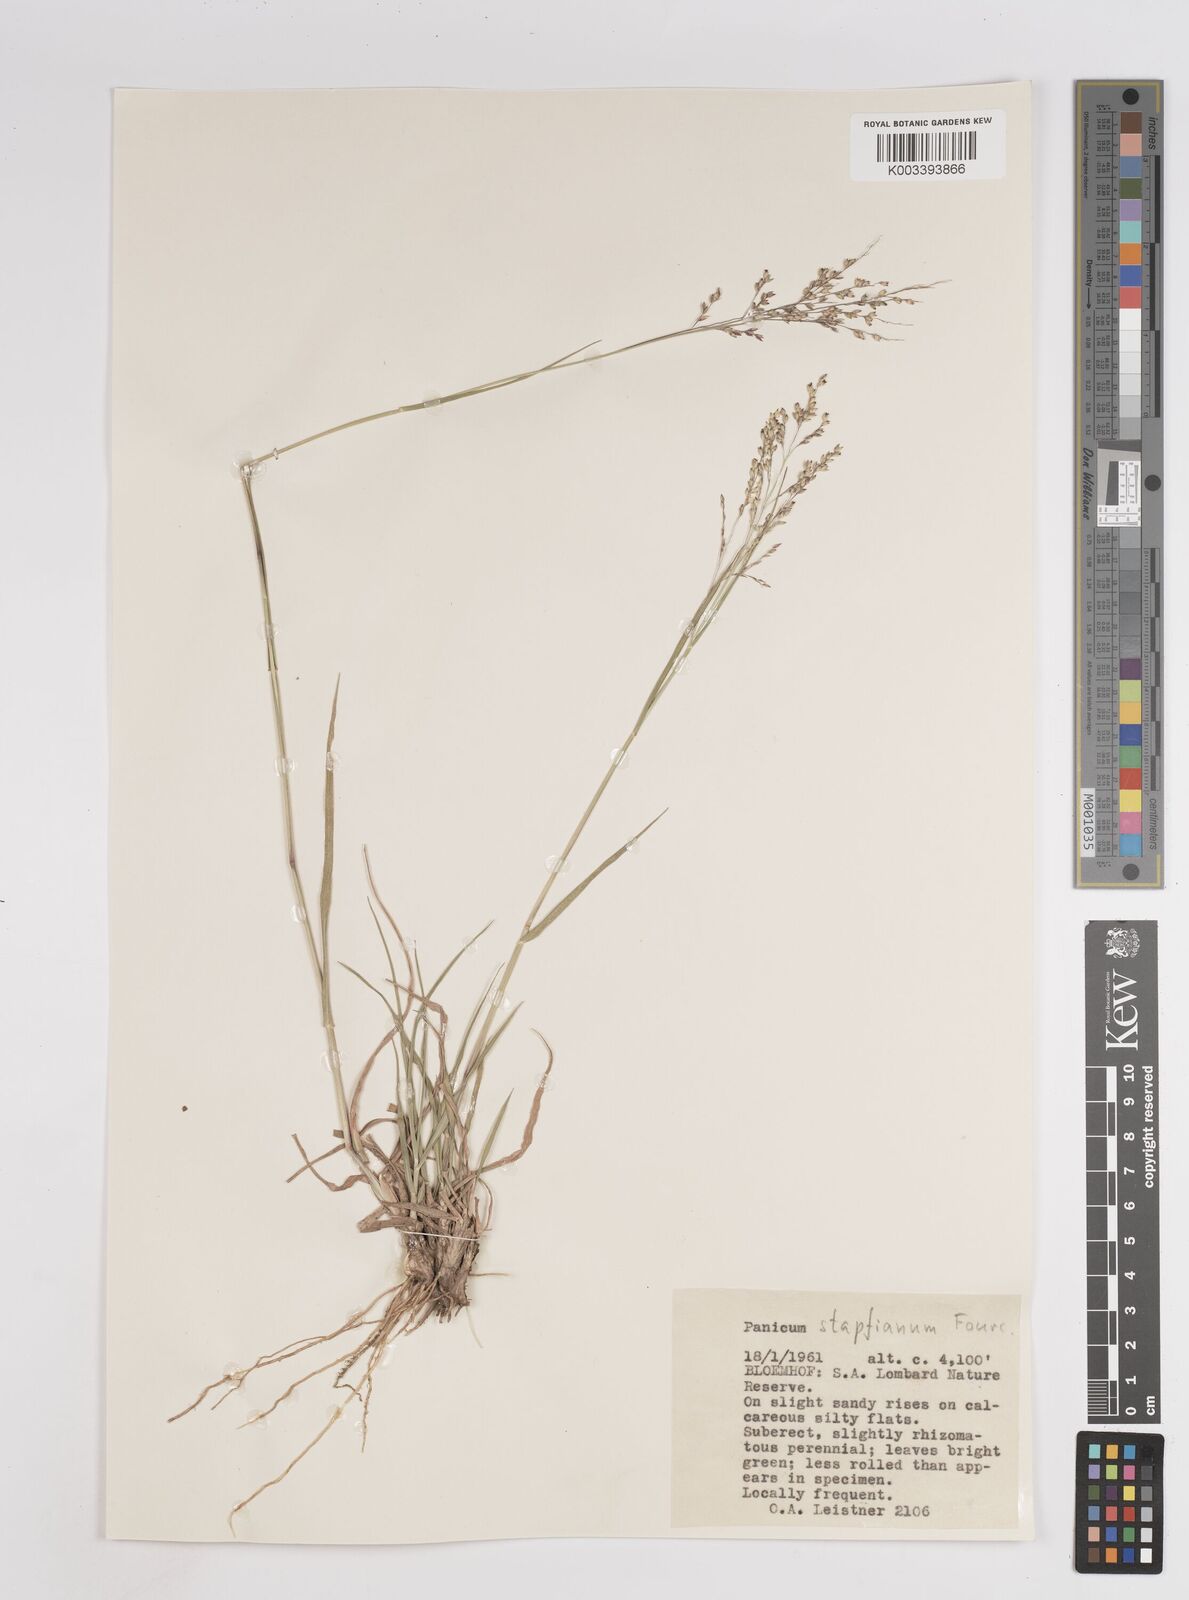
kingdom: Plantae
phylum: Tracheophyta
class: Liliopsida
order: Poales
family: Poaceae
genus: Panicum
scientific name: Panicum stapfianum
